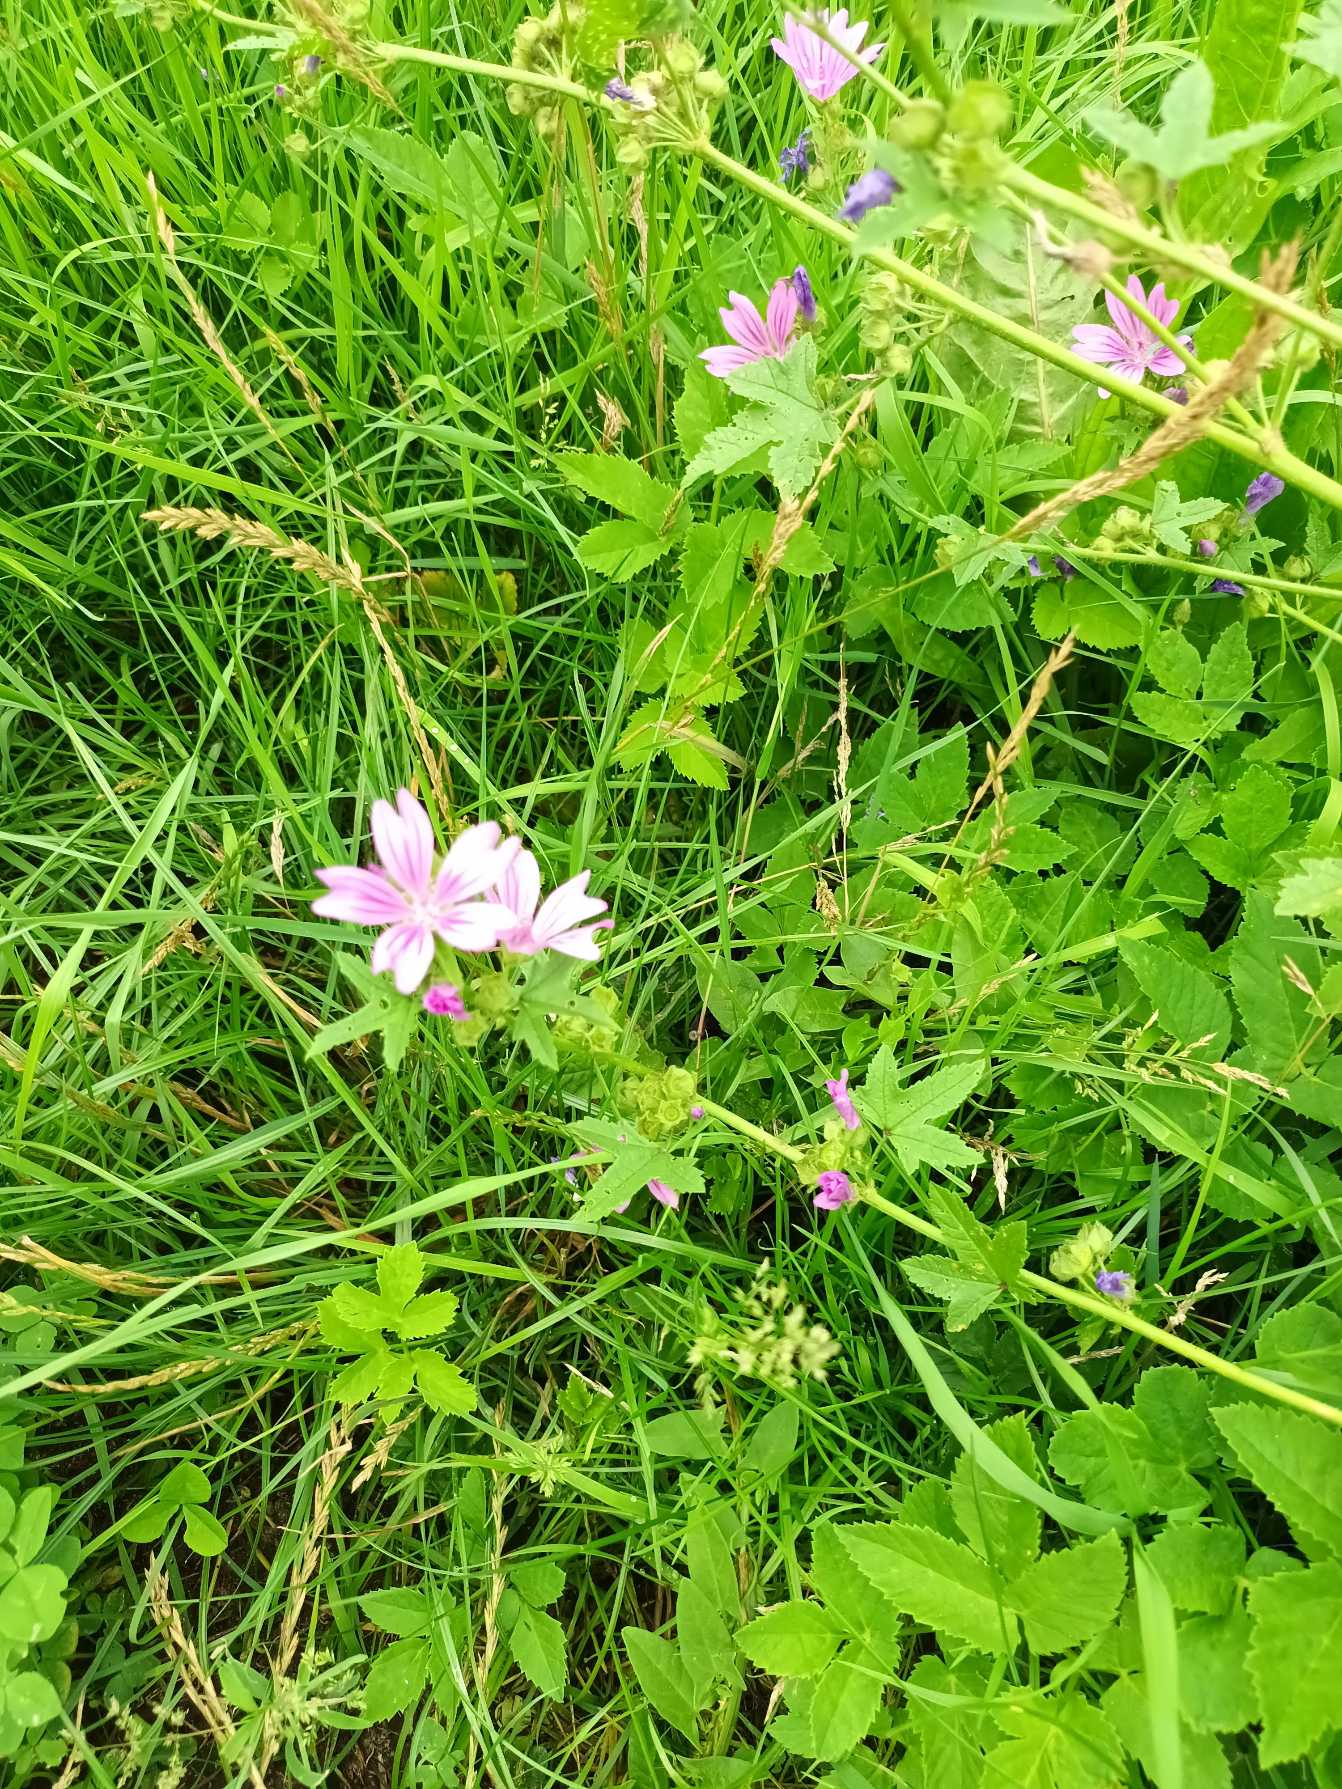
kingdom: Plantae
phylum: Tracheophyta
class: Magnoliopsida
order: Malvales
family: Malvaceae
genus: Malva
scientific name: Malva sylvestris
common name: Almindelig katost
